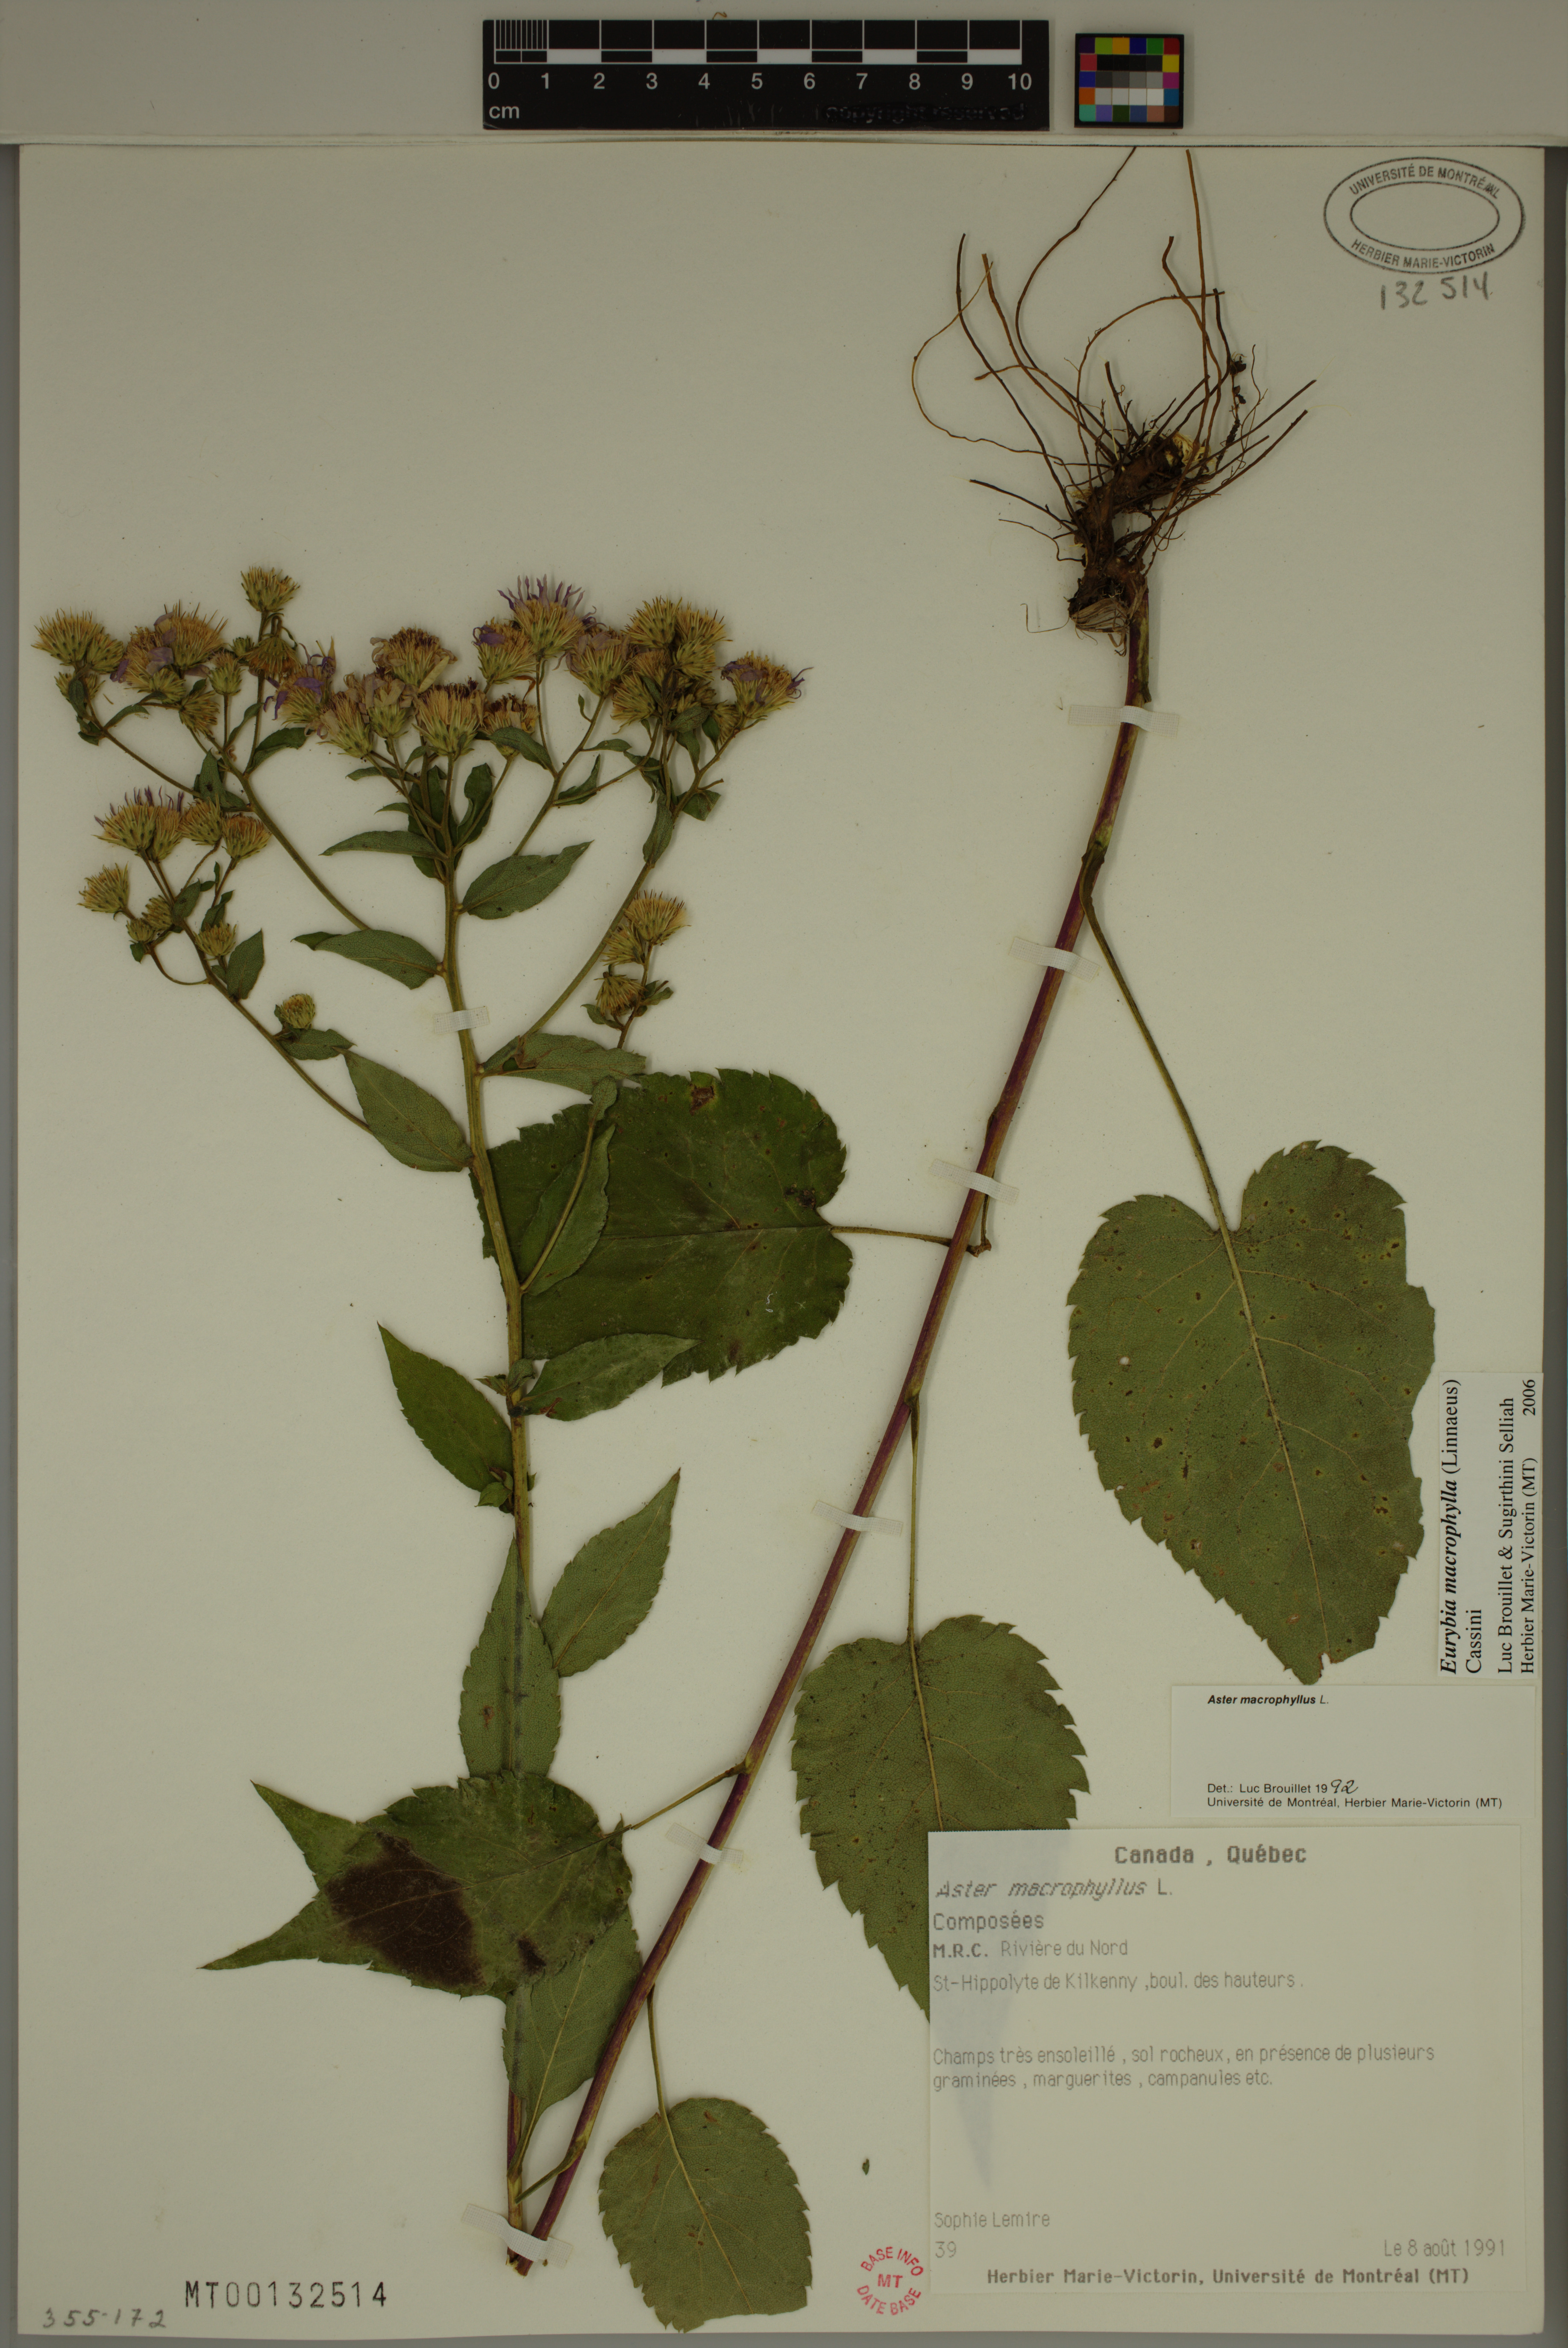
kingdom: Plantae
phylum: Tracheophyta
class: Magnoliopsida
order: Asterales
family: Asteraceae
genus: Eurybia
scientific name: Eurybia macrophylla
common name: Big-leaved aster
